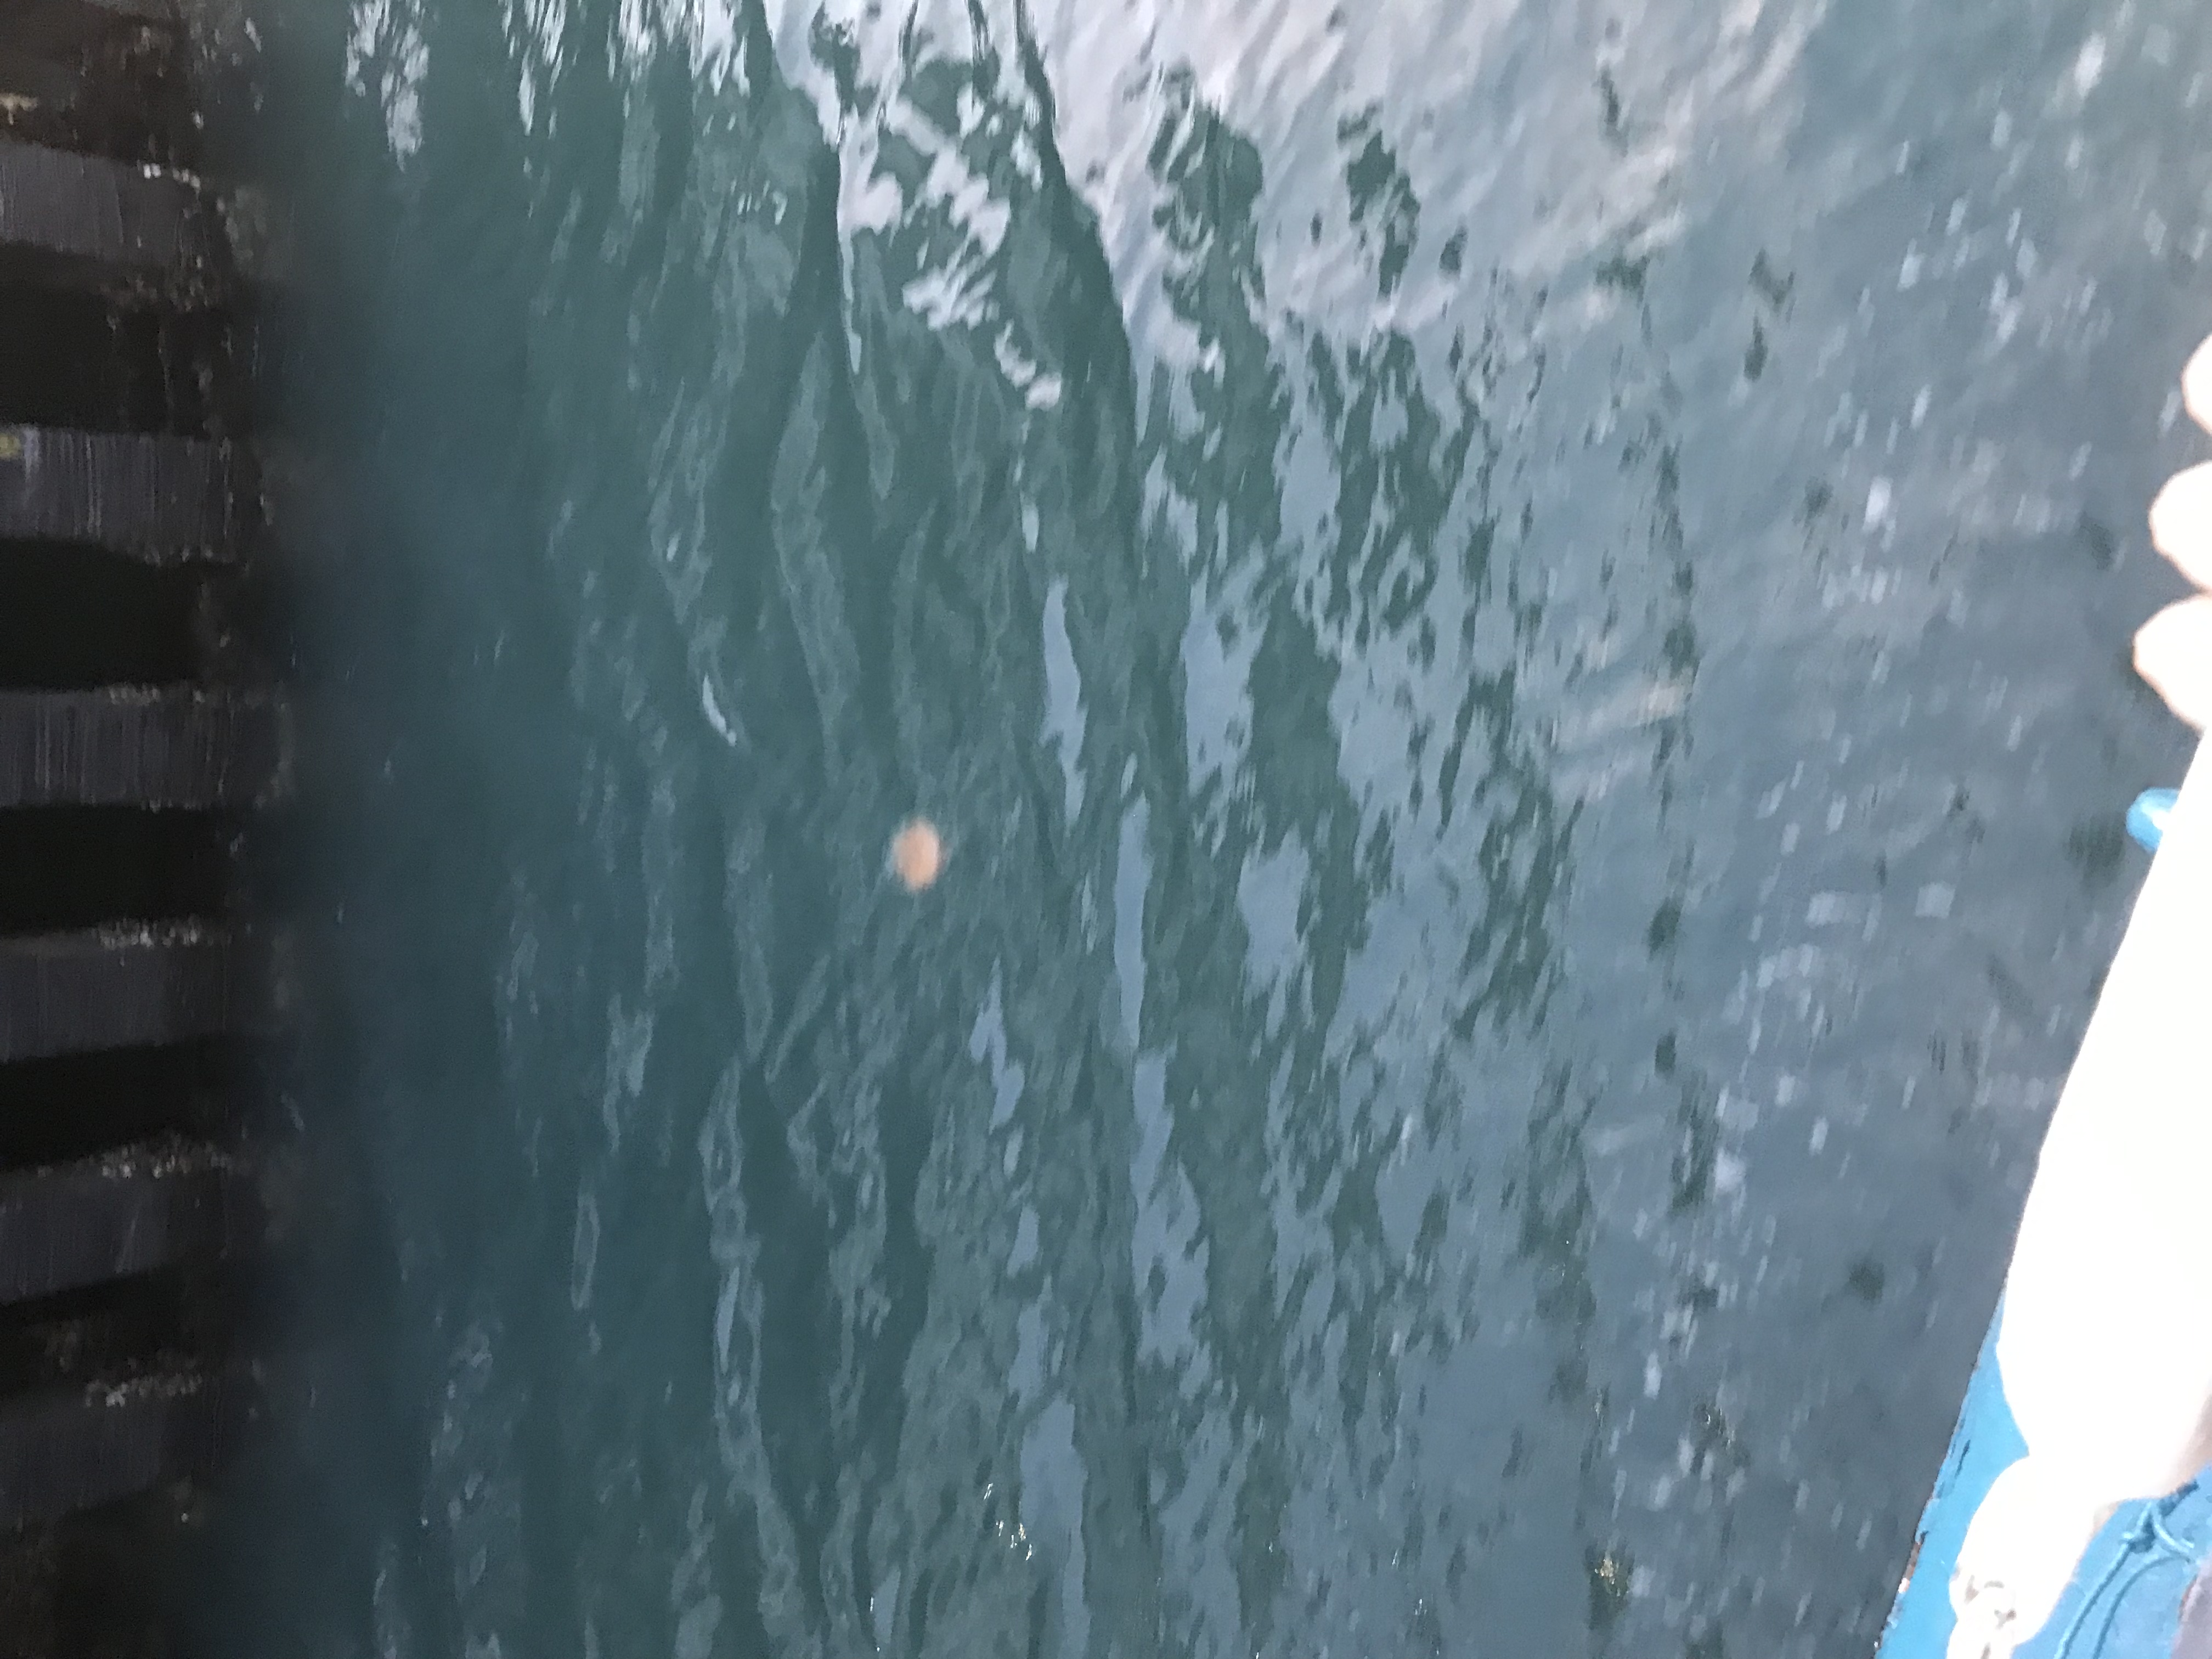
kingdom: Animalia
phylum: Cnidaria
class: Scyphozoa
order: Semaeostomeae
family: Cyaneidae
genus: Cyanea
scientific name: Cyanea nozakii
